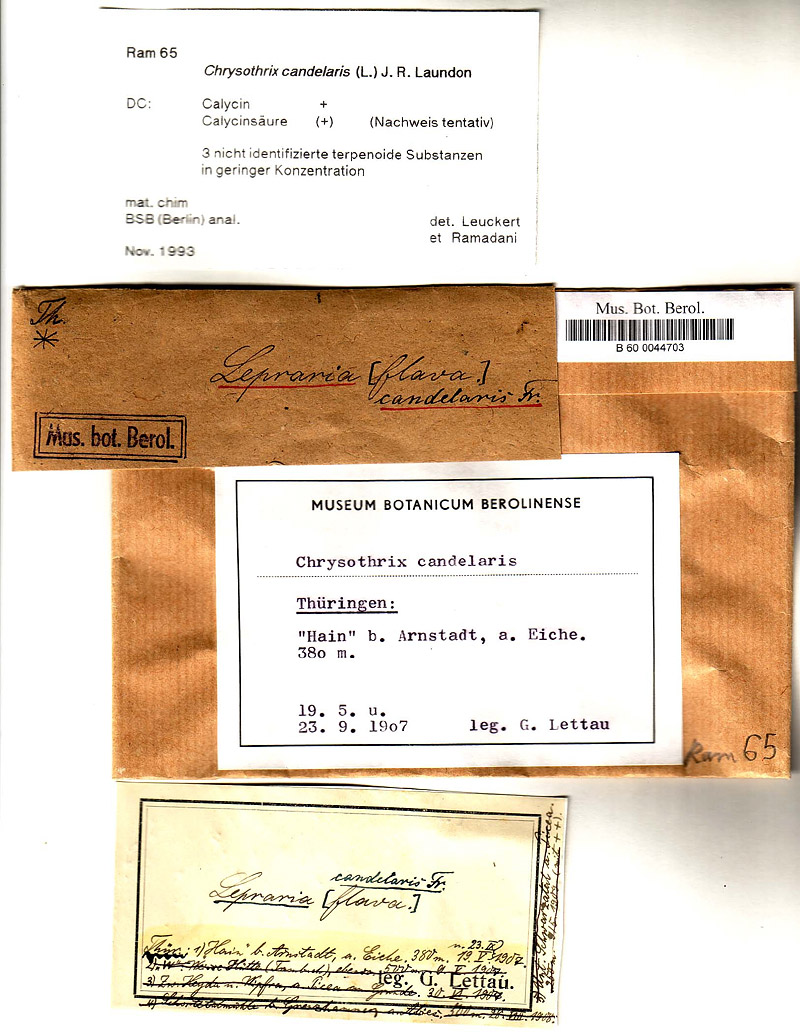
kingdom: Fungi
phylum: Ascomycota
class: Arthoniomycetes
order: Arthoniales
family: Chrysotrichaceae
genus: Chrysothrix
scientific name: Chrysothrix candelaris
